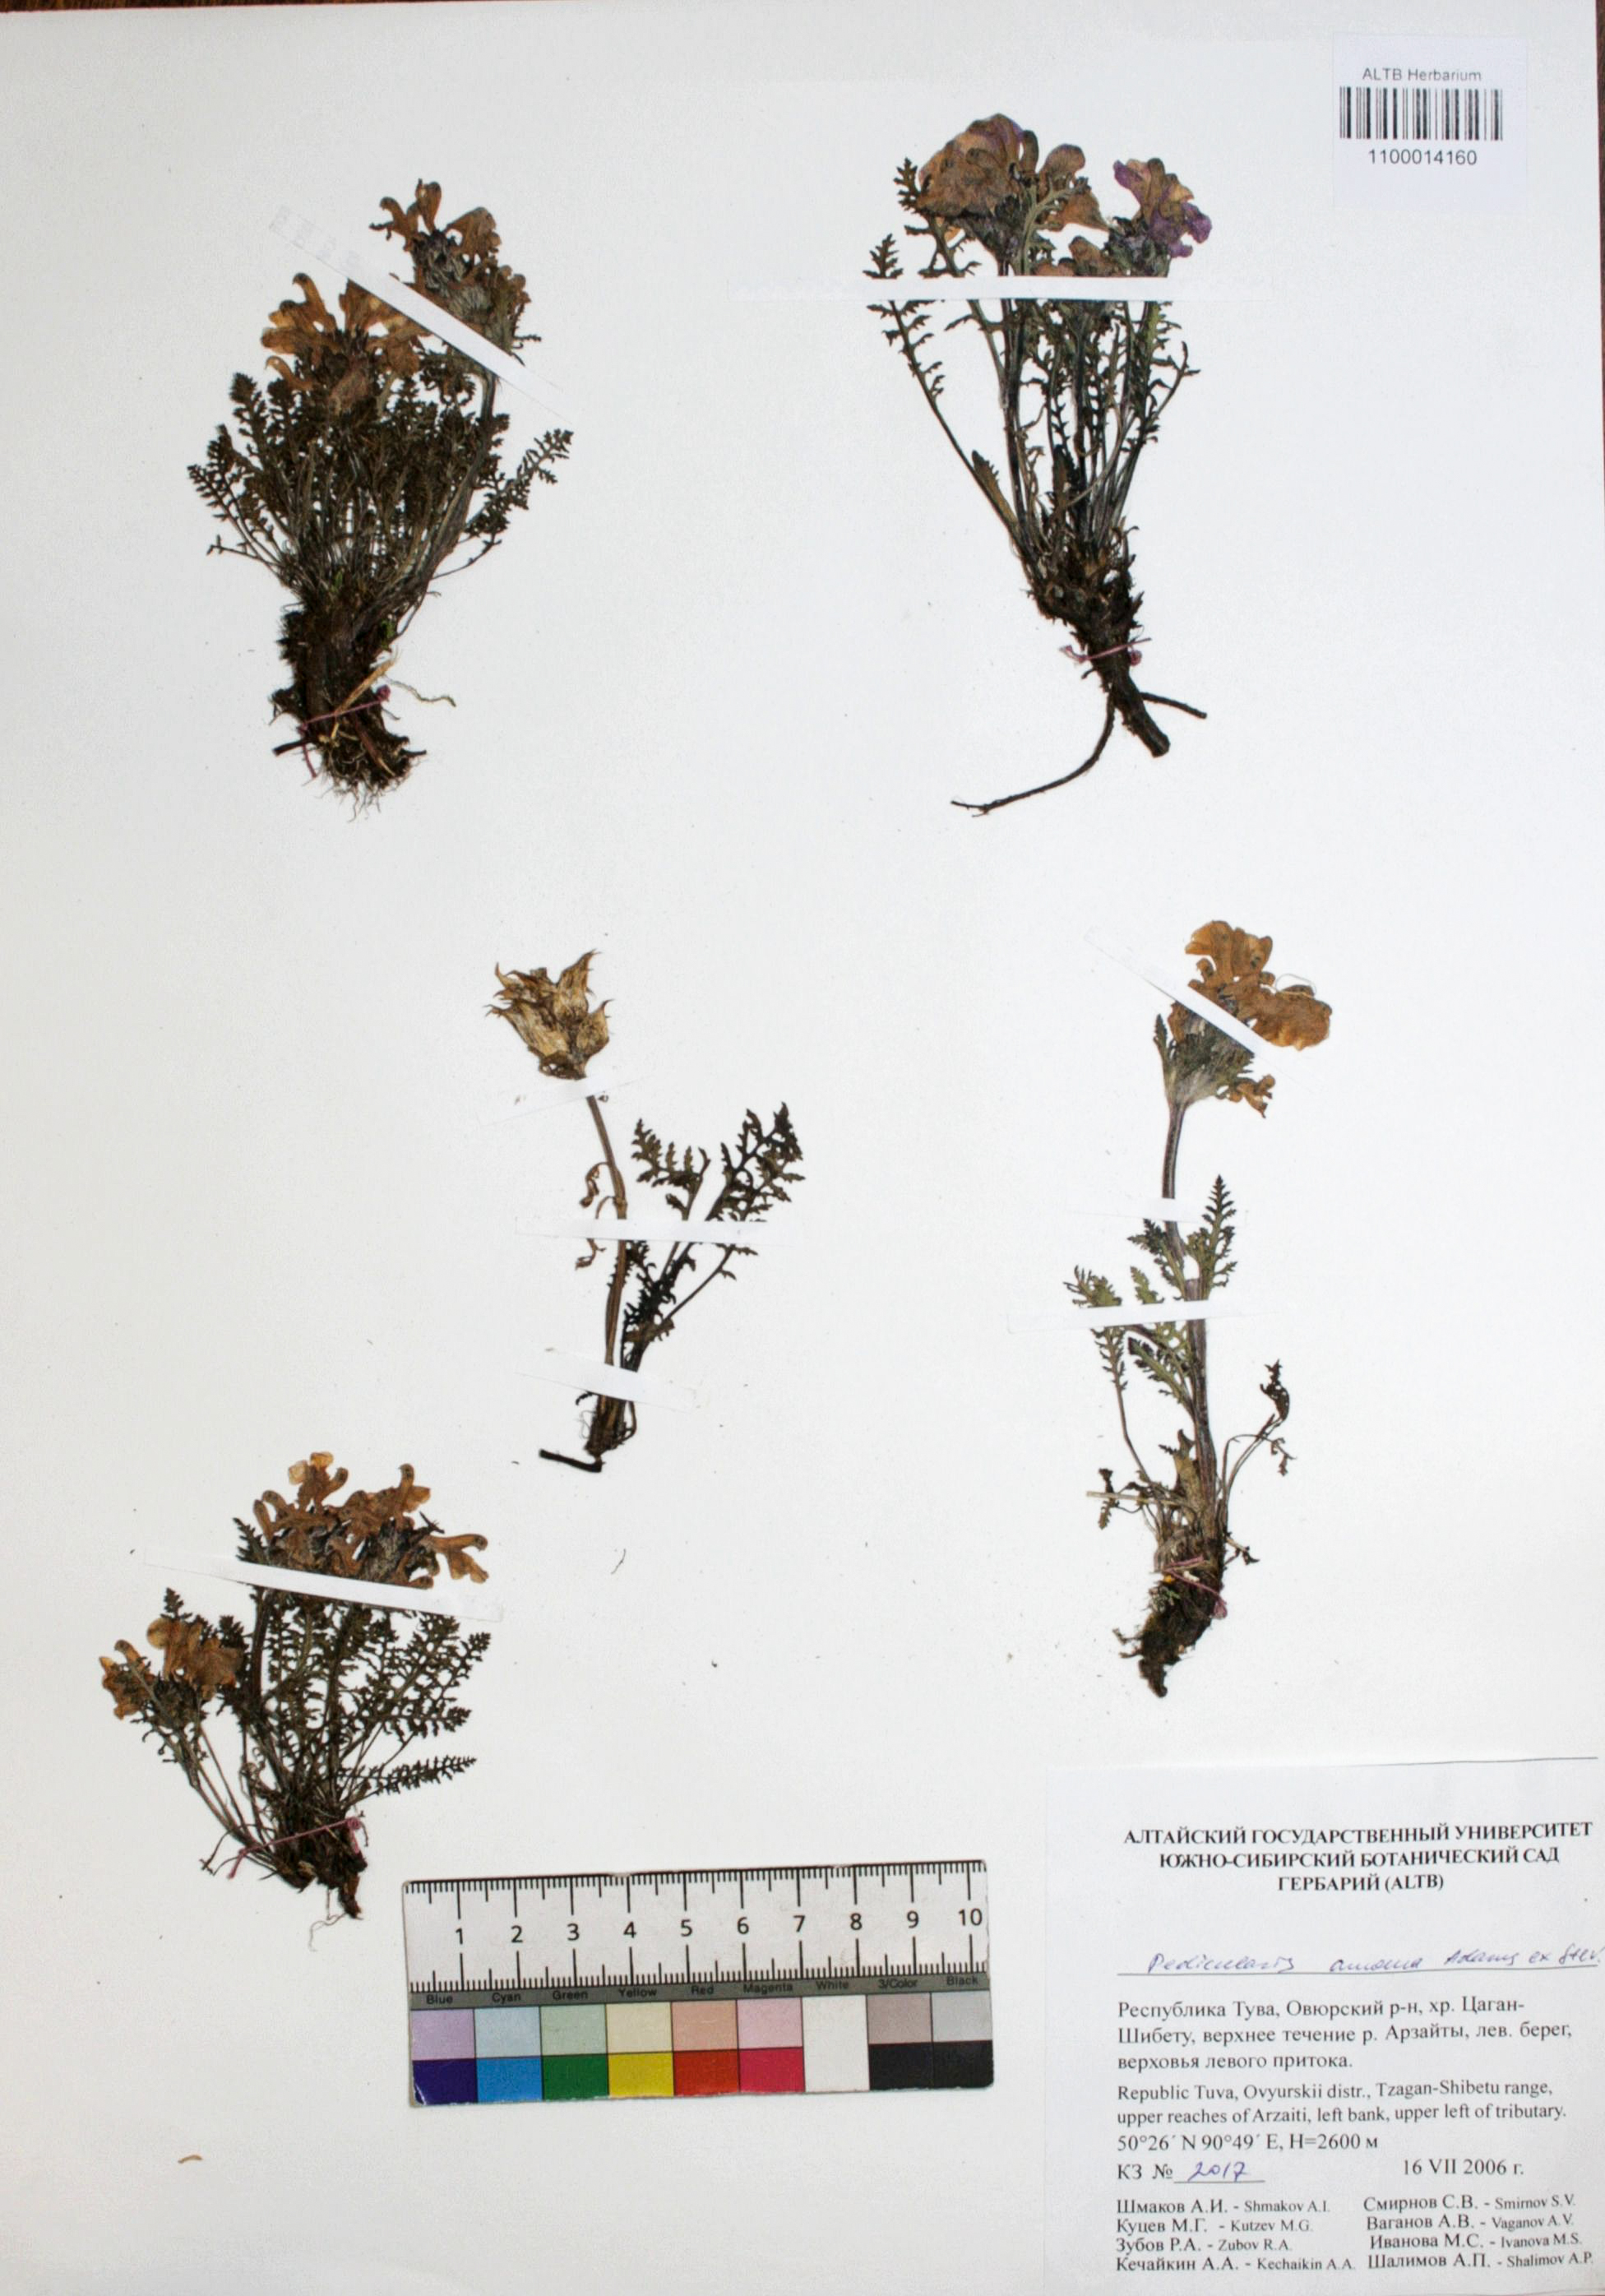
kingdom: Plantae
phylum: Tracheophyta
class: Magnoliopsida
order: Lamiales
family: Orobanchaceae
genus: Pedicularis
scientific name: Pedicularis amoena
